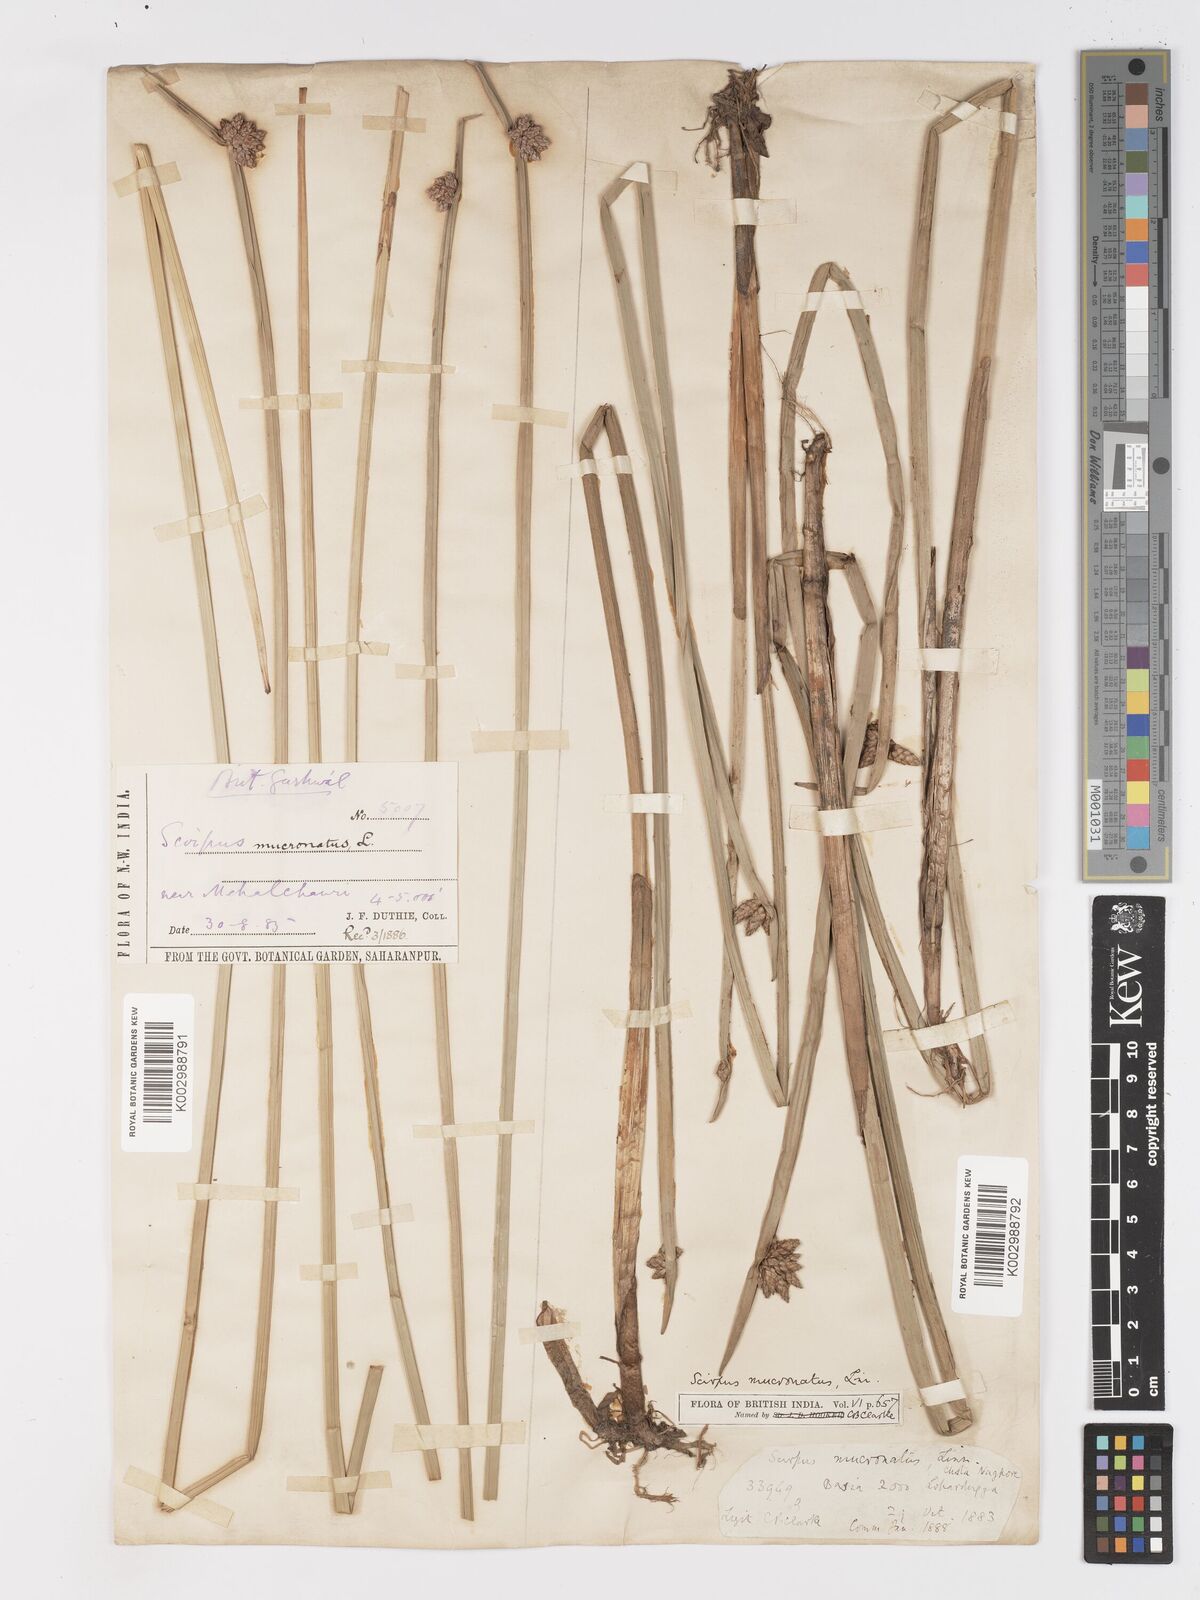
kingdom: Plantae
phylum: Tracheophyta
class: Liliopsida
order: Poales
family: Cyperaceae
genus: Schoenoplectiella
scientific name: Schoenoplectiella mucronata
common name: Bog bulrush
